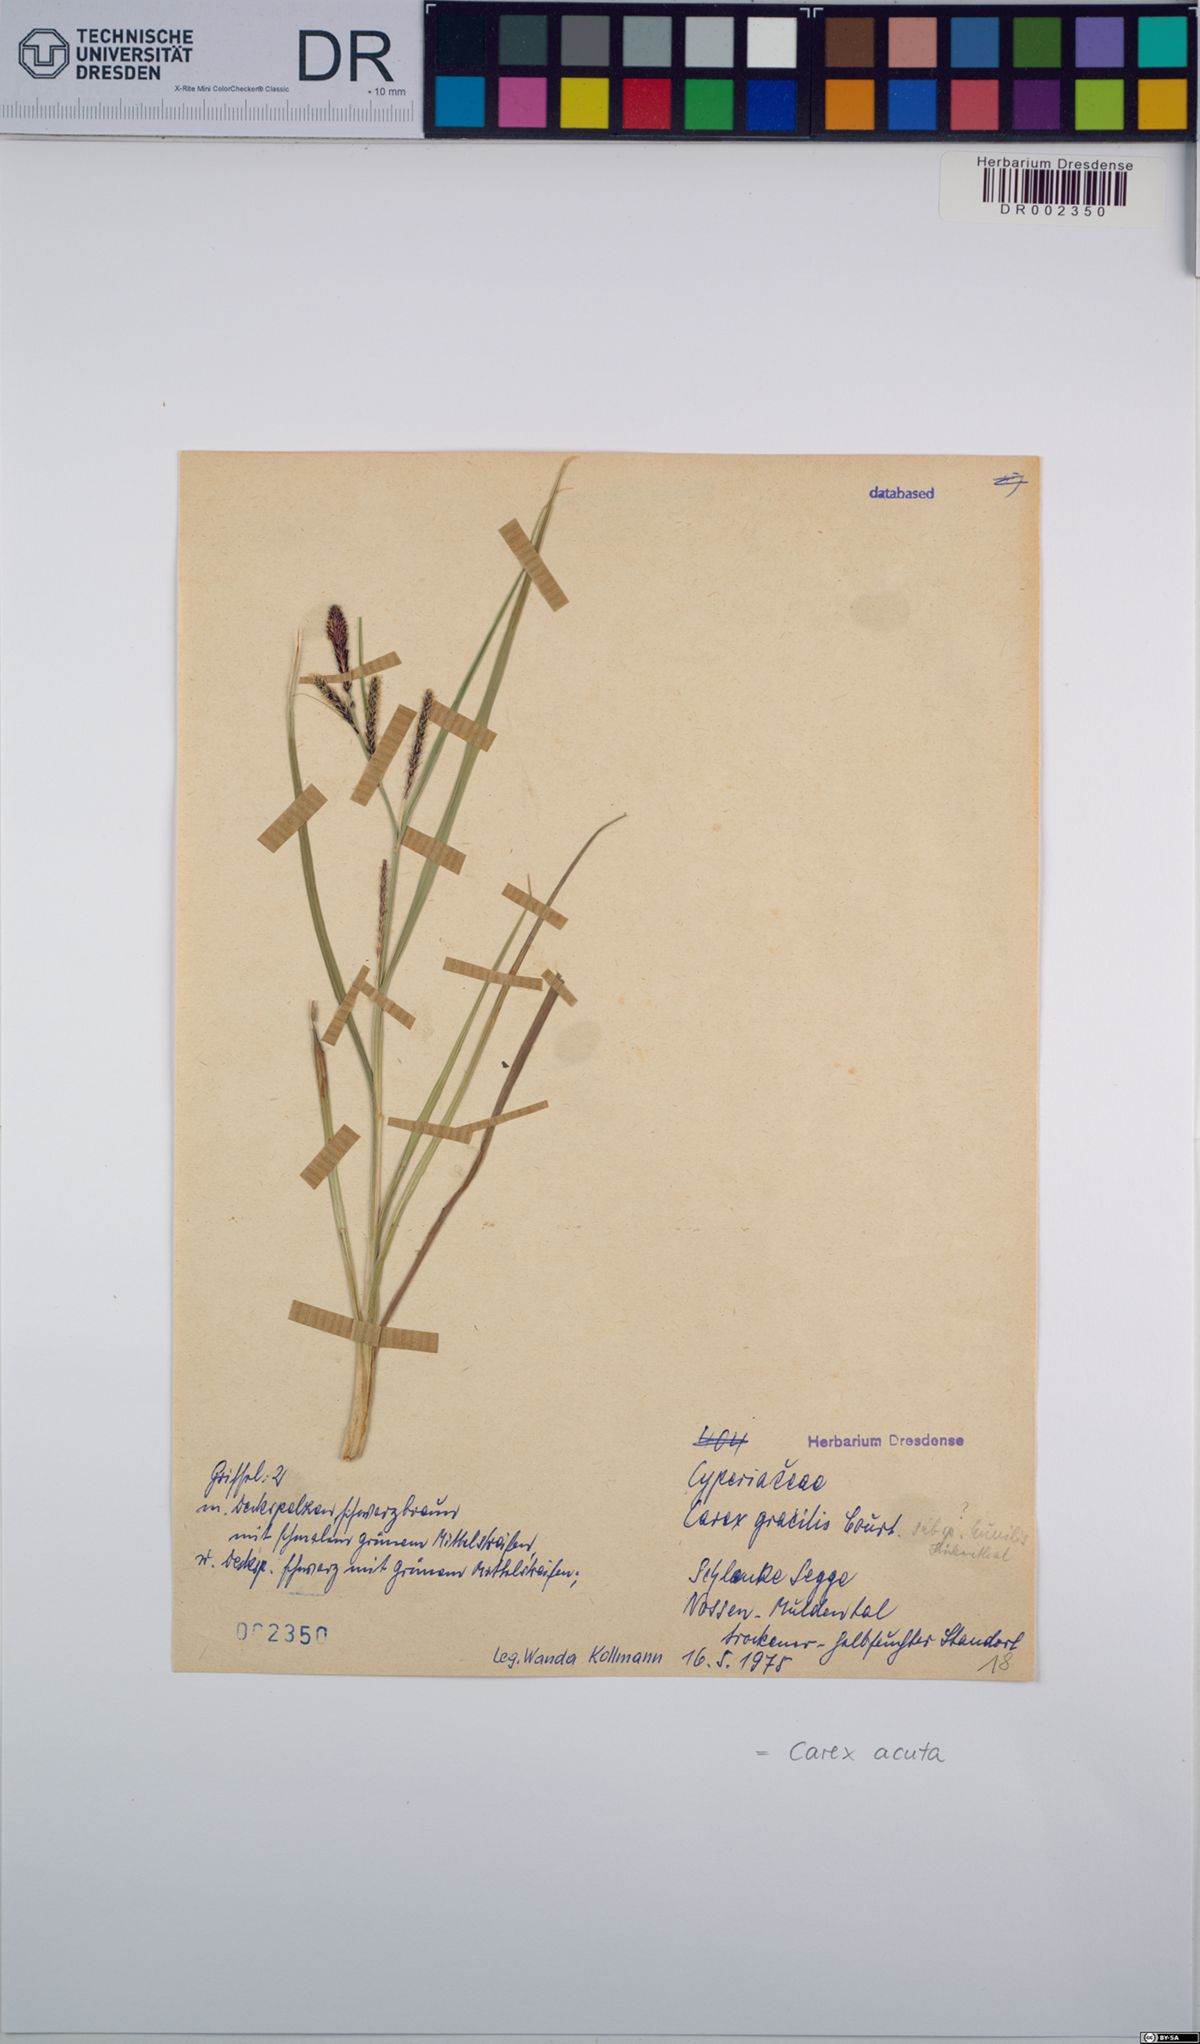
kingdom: Plantae
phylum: Tracheophyta
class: Liliopsida
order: Poales
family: Cyperaceae
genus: Carex
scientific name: Carex acuta
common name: Slender tufted-sedge
